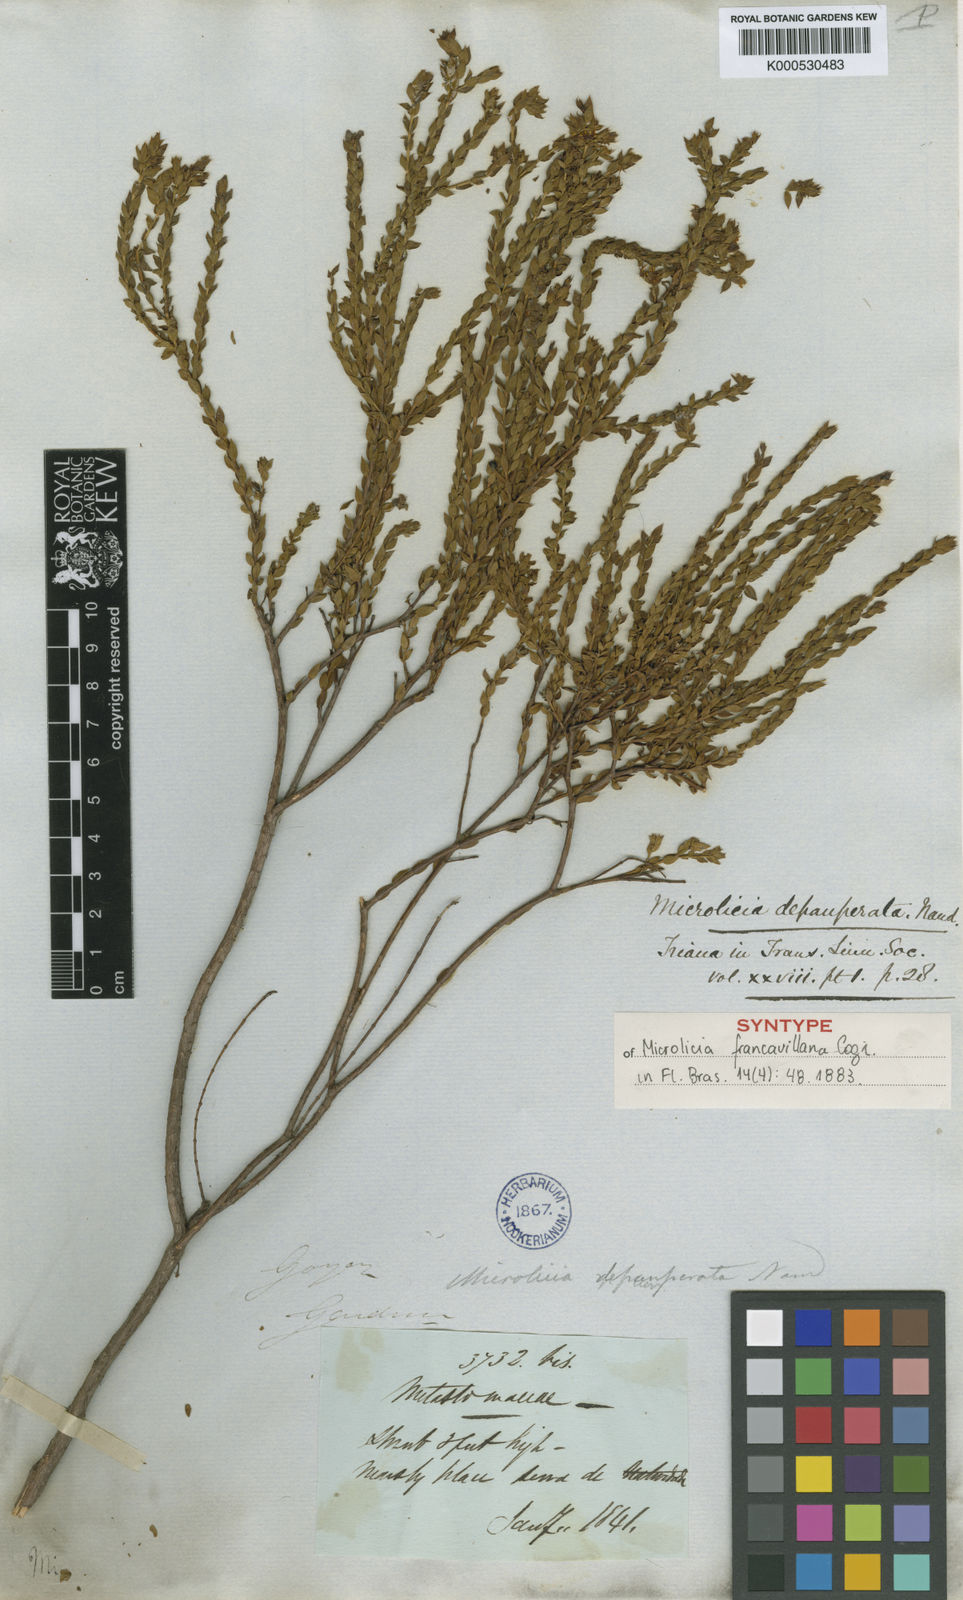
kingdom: Plantae
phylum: Tracheophyta
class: Magnoliopsida
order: Myrtales
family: Melastomataceae
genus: Microlicia
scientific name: Microlicia
